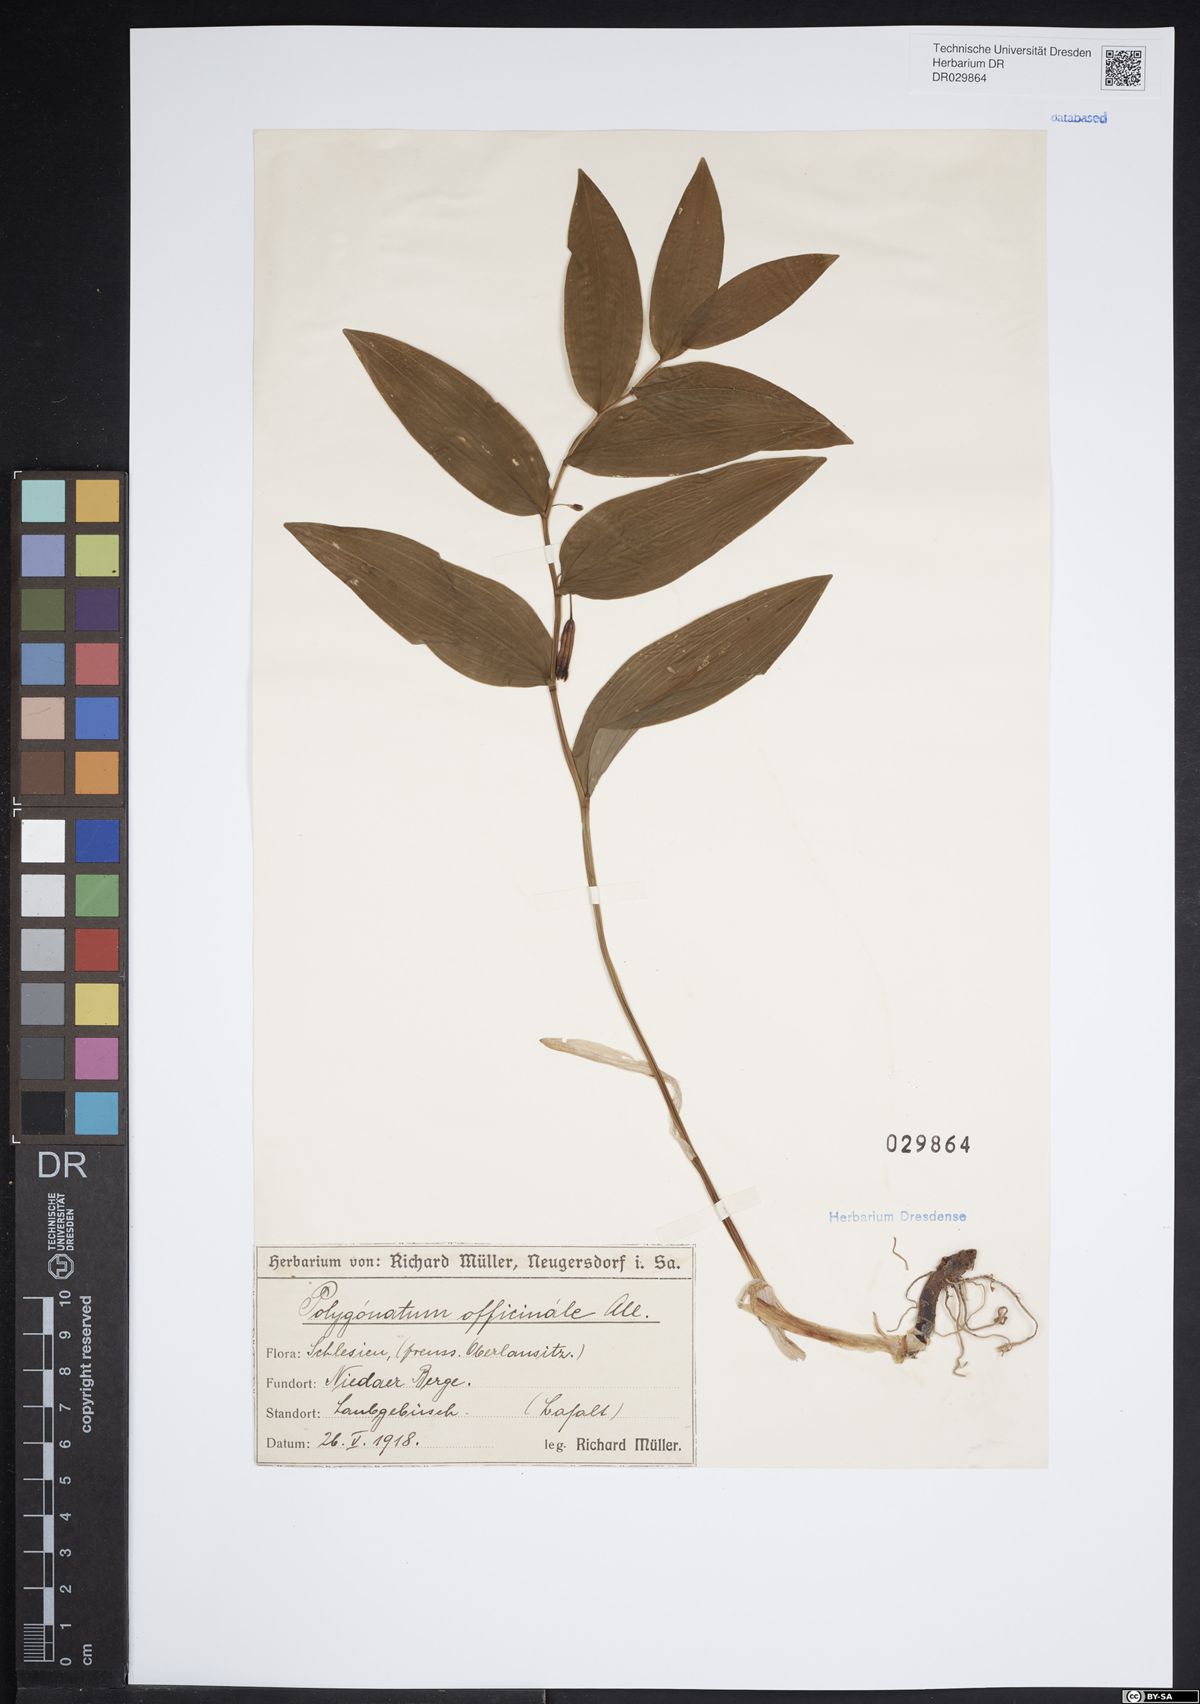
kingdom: Plantae
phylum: Tracheophyta
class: Liliopsida
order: Asparagales
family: Asparagaceae
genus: Polygonatum
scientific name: Polygonatum odoratum
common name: Angular solomon's-seal
